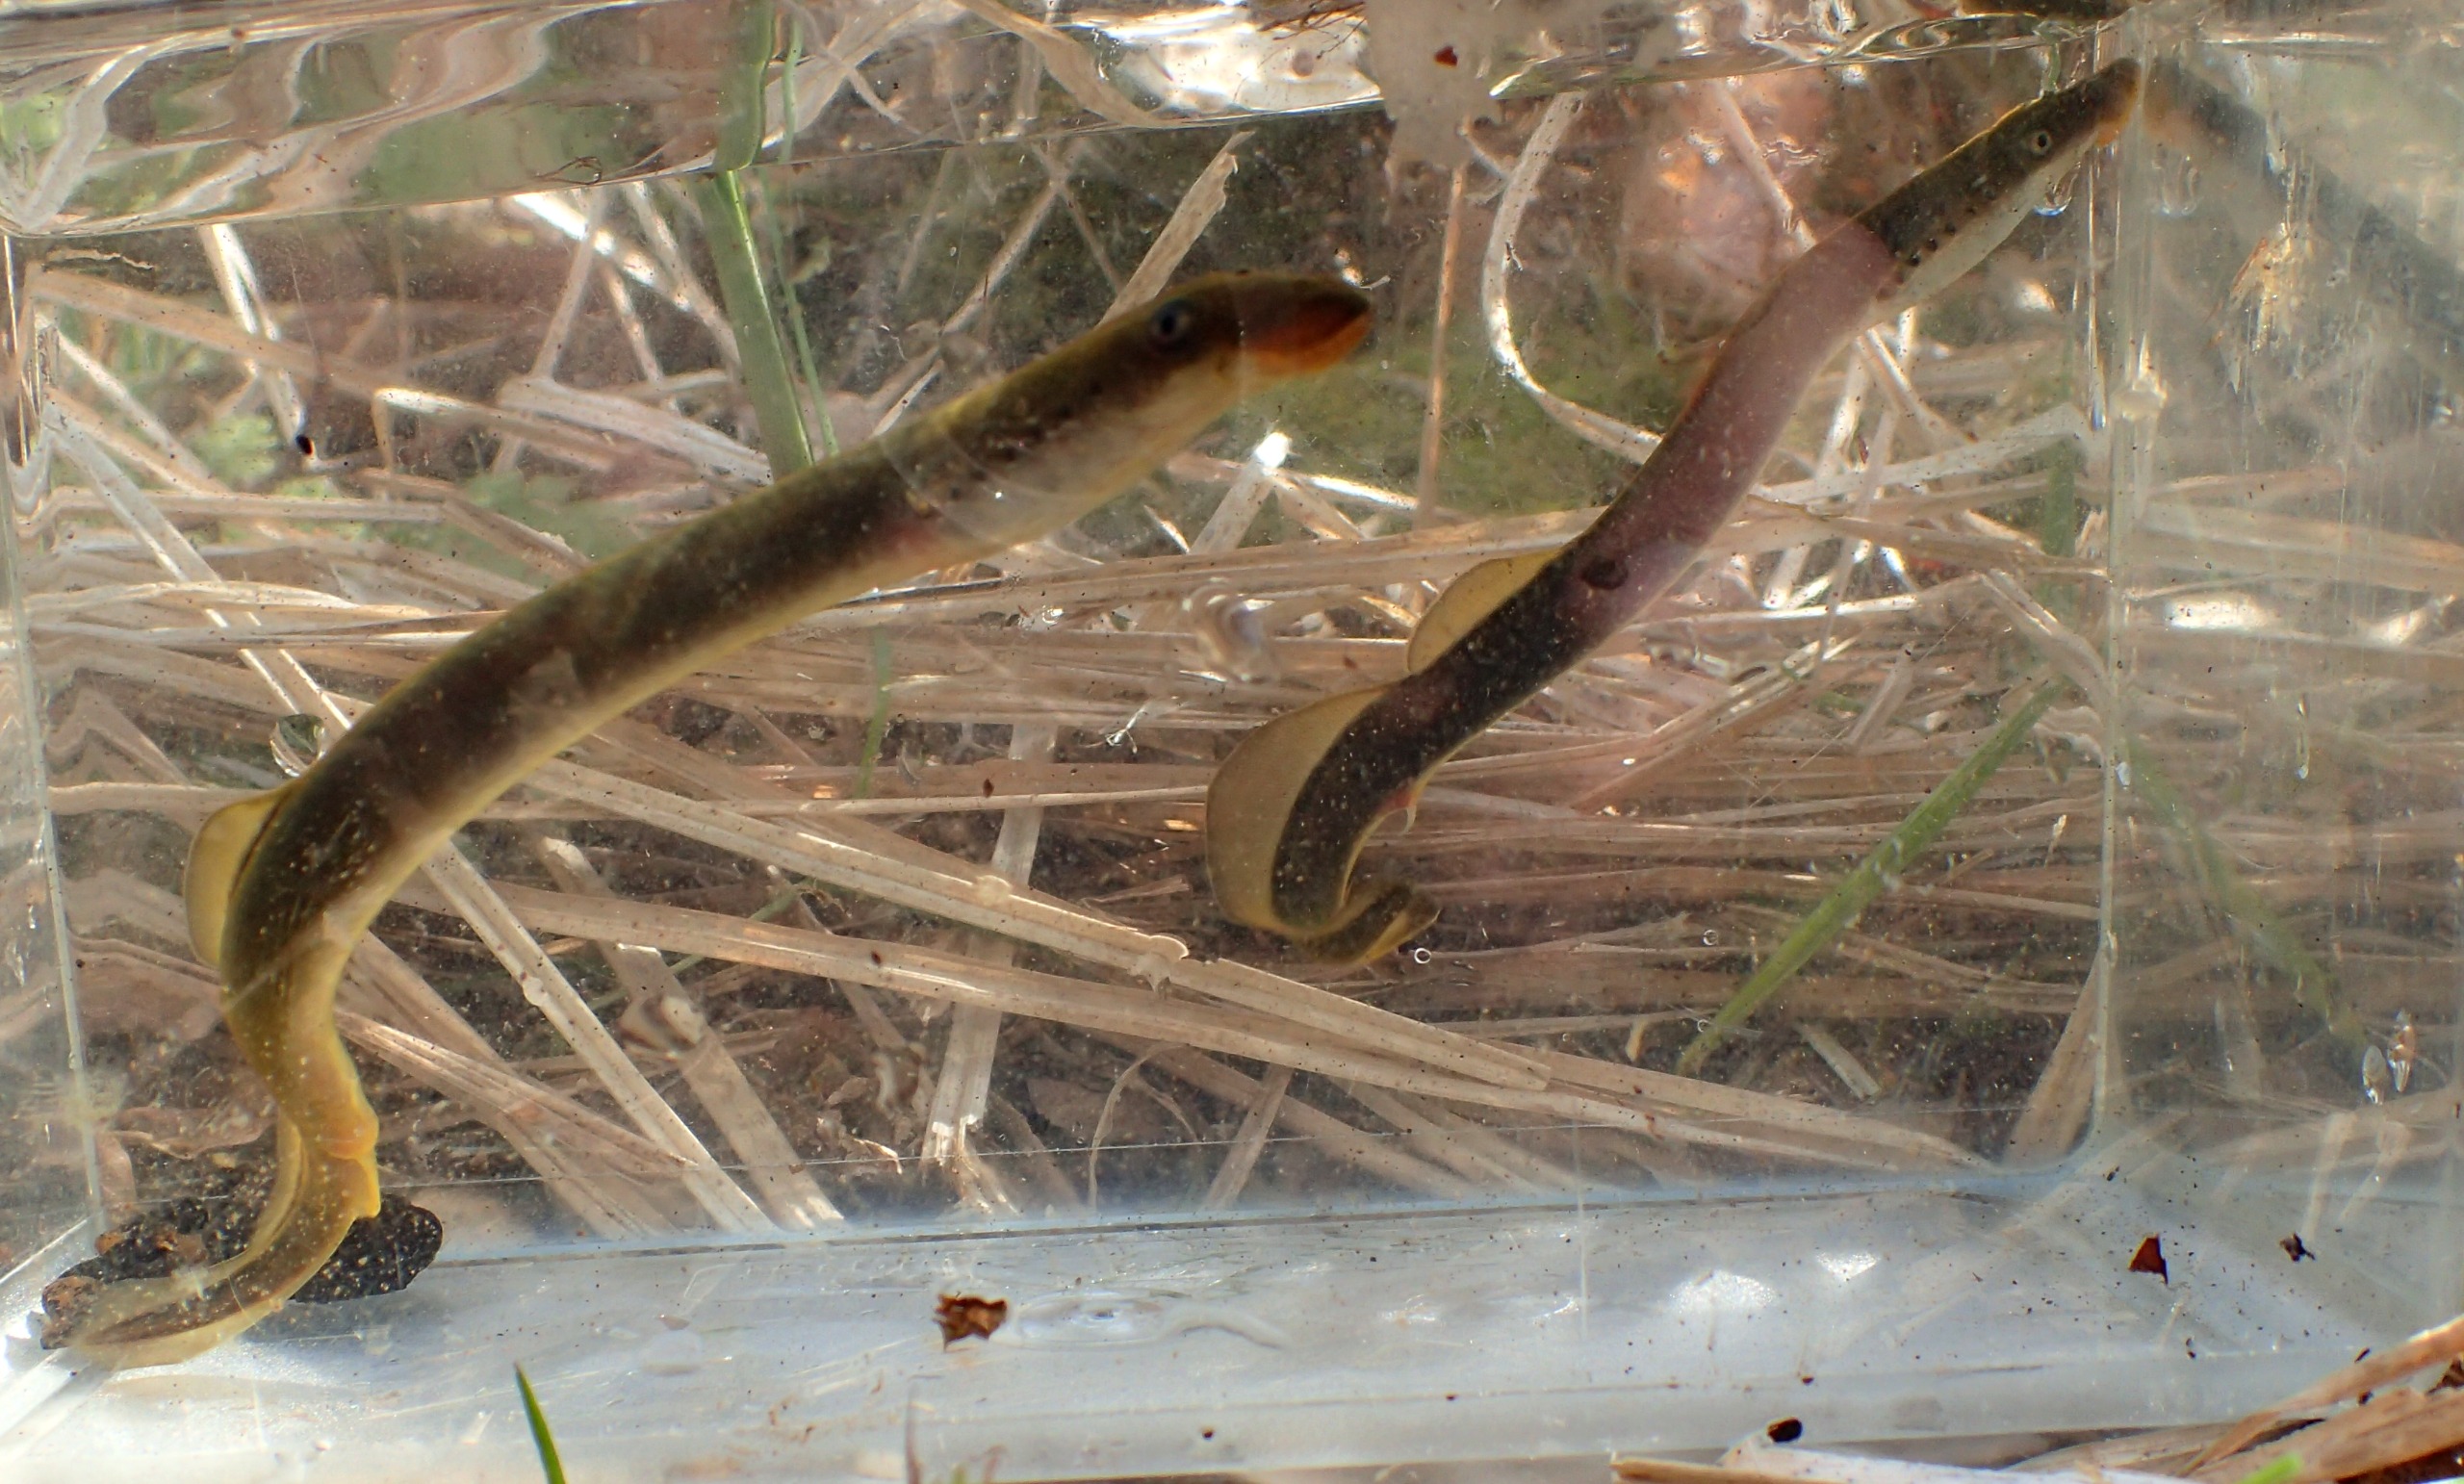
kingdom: Animalia
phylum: Chordata
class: Petromyzonti
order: Petromyzontiformes
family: Petromyzontidae
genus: Lampetra
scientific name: Lampetra planeri
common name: Bæklampret
